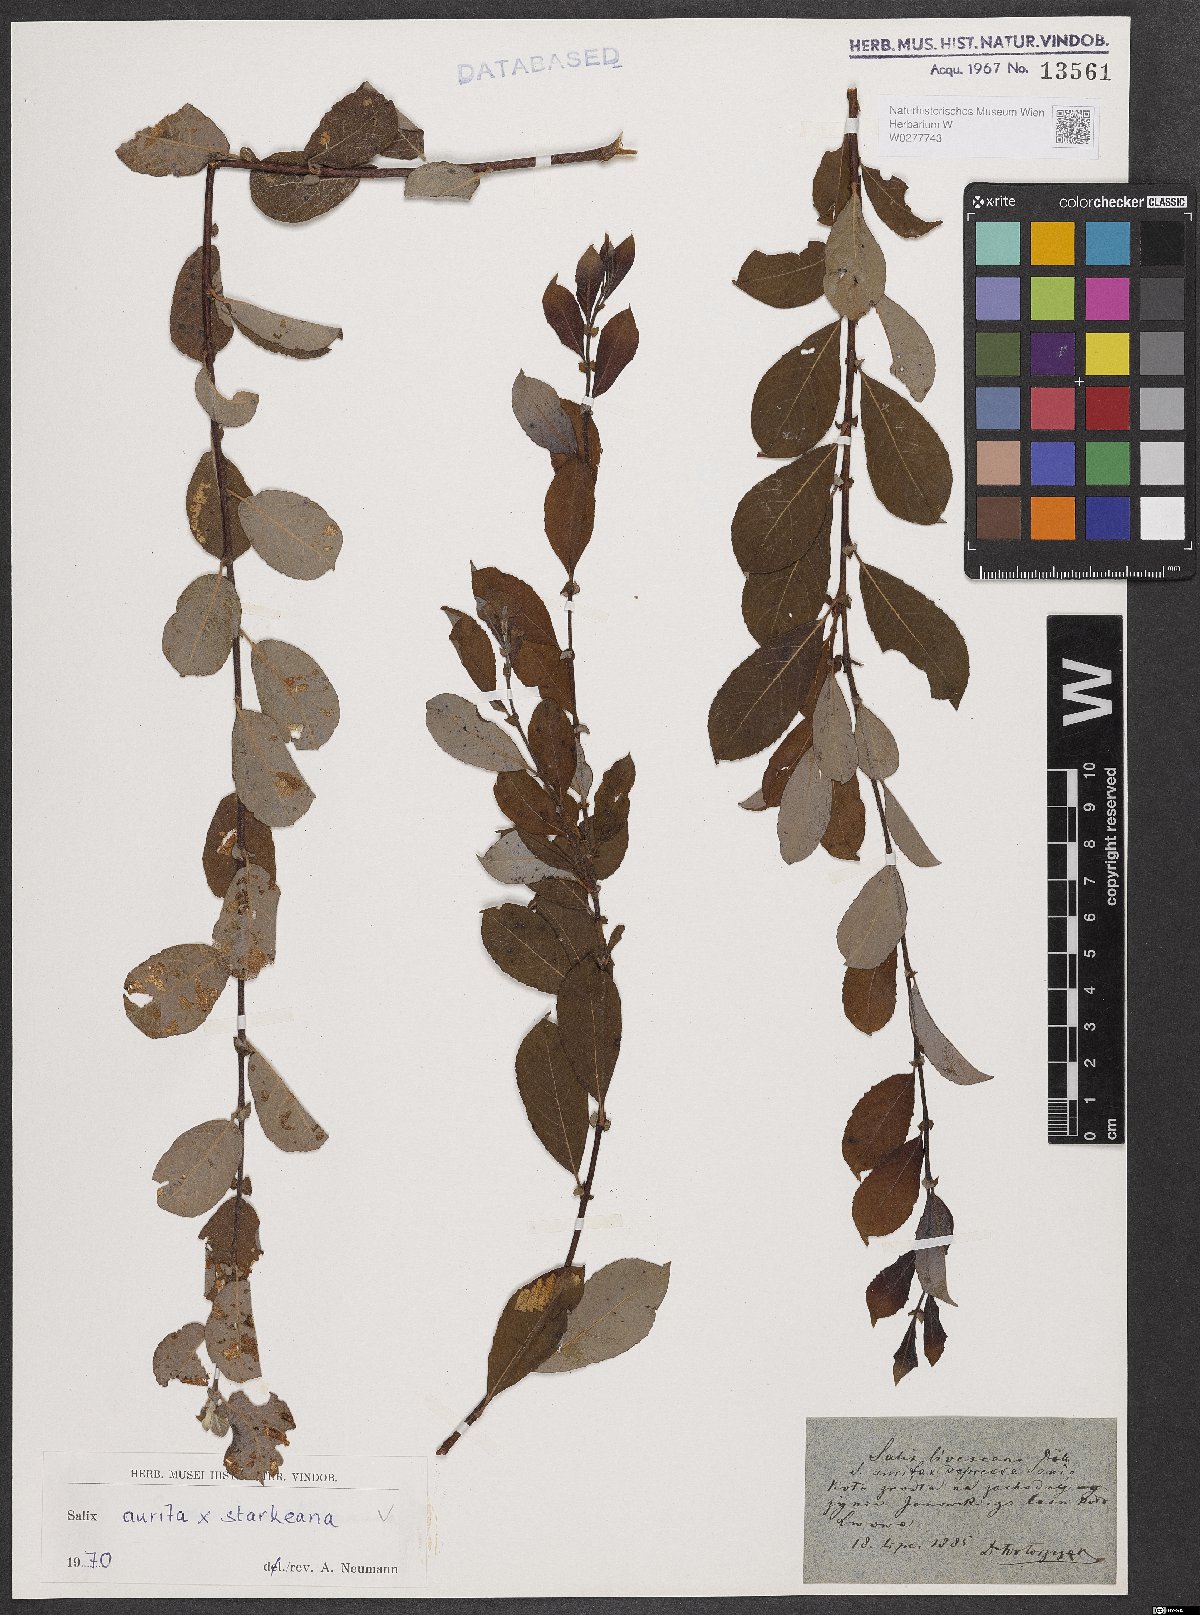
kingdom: Plantae
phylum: Tracheophyta
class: Magnoliopsida
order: Malpighiales
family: Salicaceae
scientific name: Salicaceae
